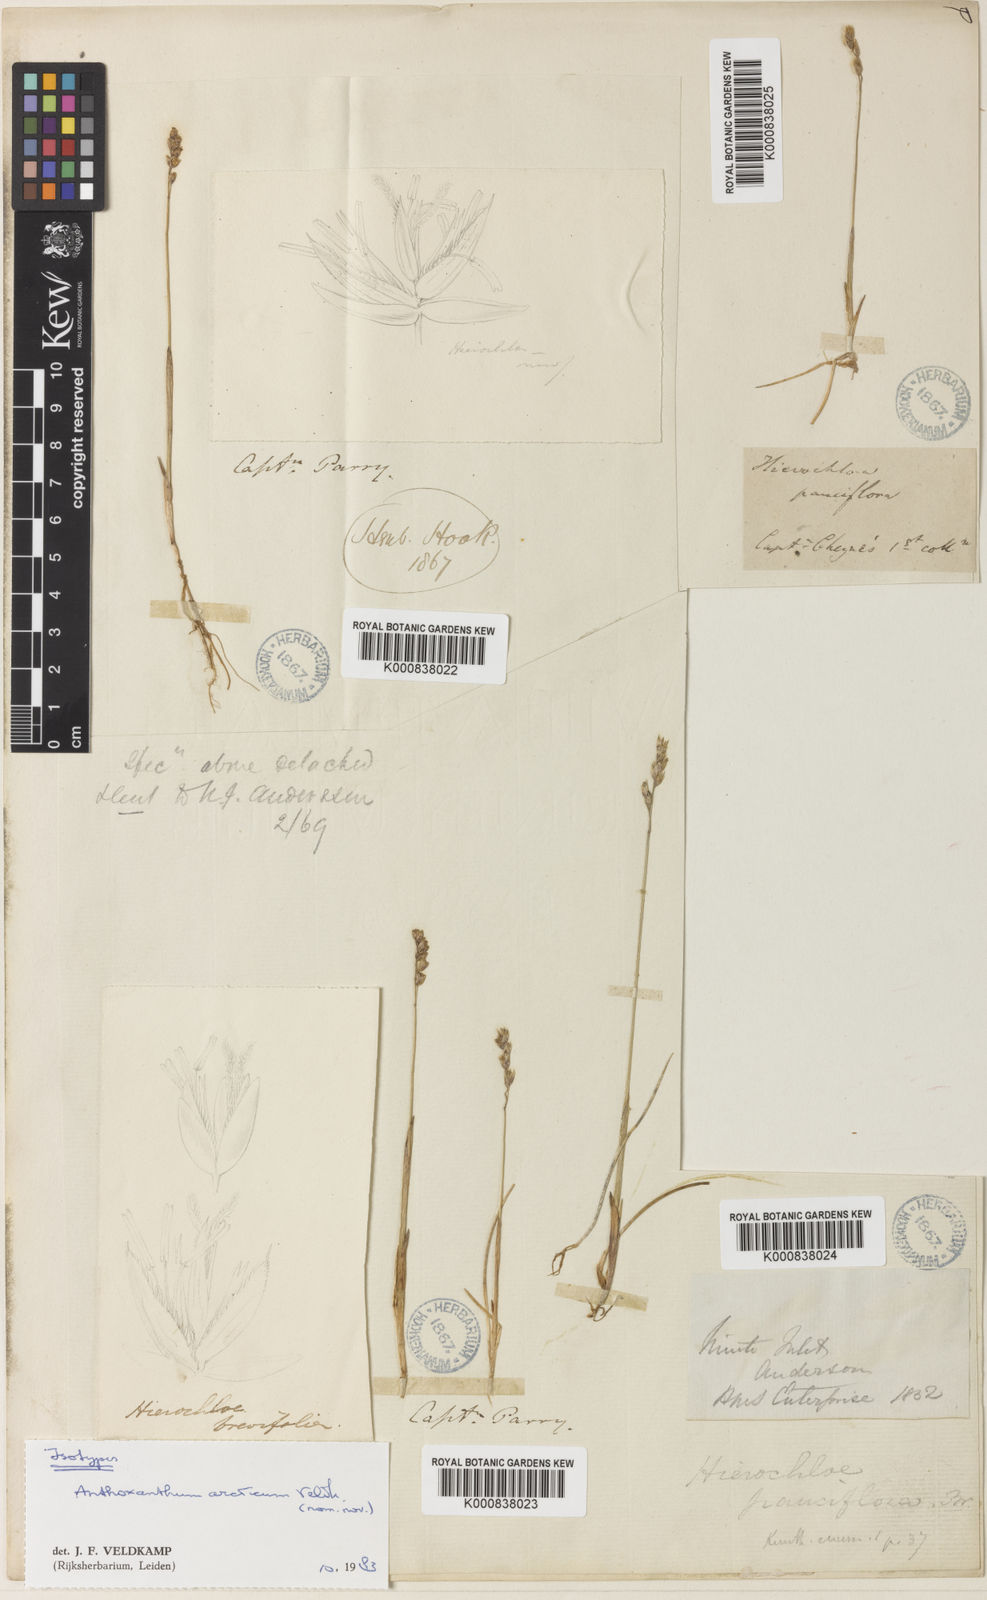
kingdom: Plantae
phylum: Tracheophyta
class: Liliopsida
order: Poales
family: Poaceae
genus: Anthoxanthum
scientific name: Anthoxanthum arcticum
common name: Arctic sweetgrass
